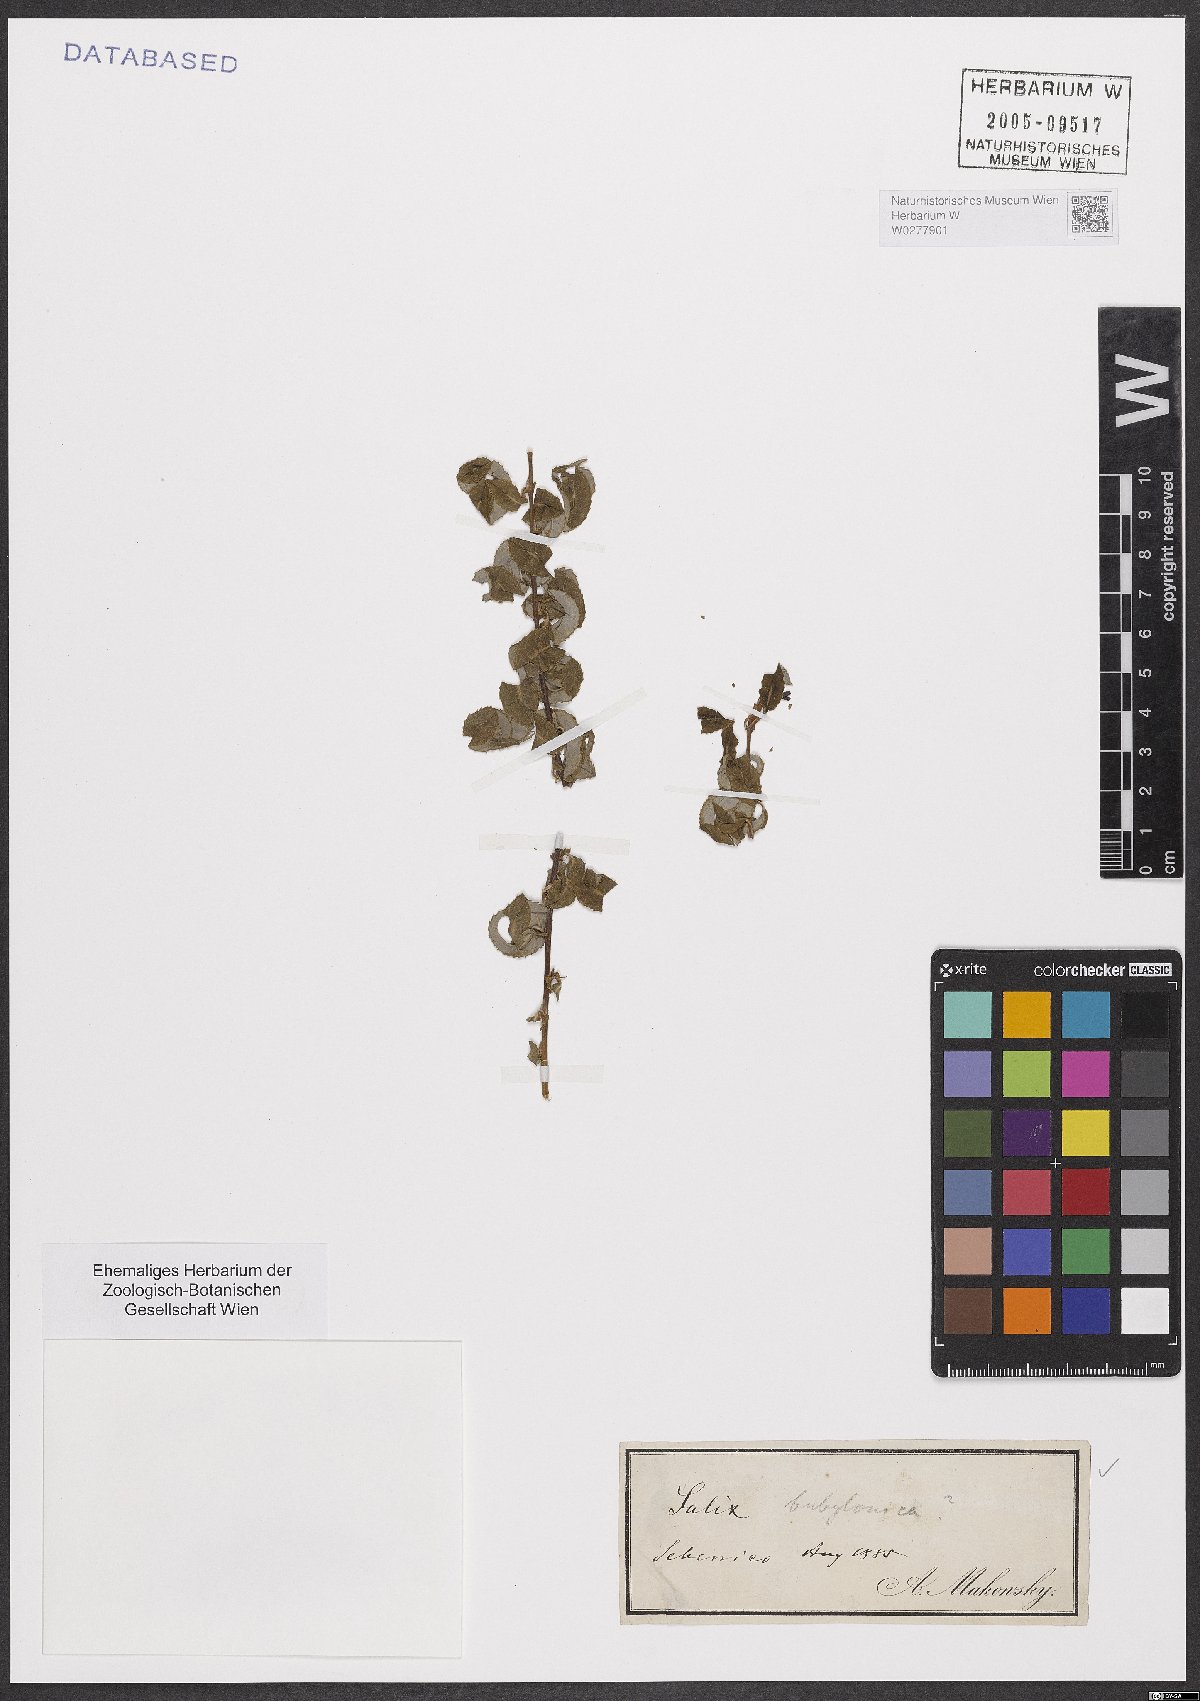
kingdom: Plantae
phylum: Tracheophyta
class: Magnoliopsida
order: Malpighiales
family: Salicaceae
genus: Salix
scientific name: Salix babylonica
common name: Weeping willow
